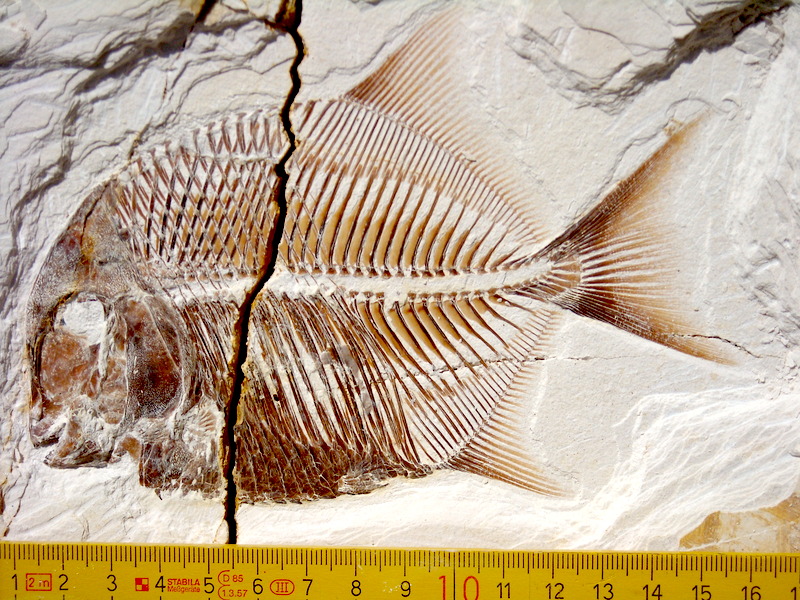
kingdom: Animalia
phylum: Chordata
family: Pycnodontidae
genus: Turboscinetes
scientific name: Turboscinetes egertoni
